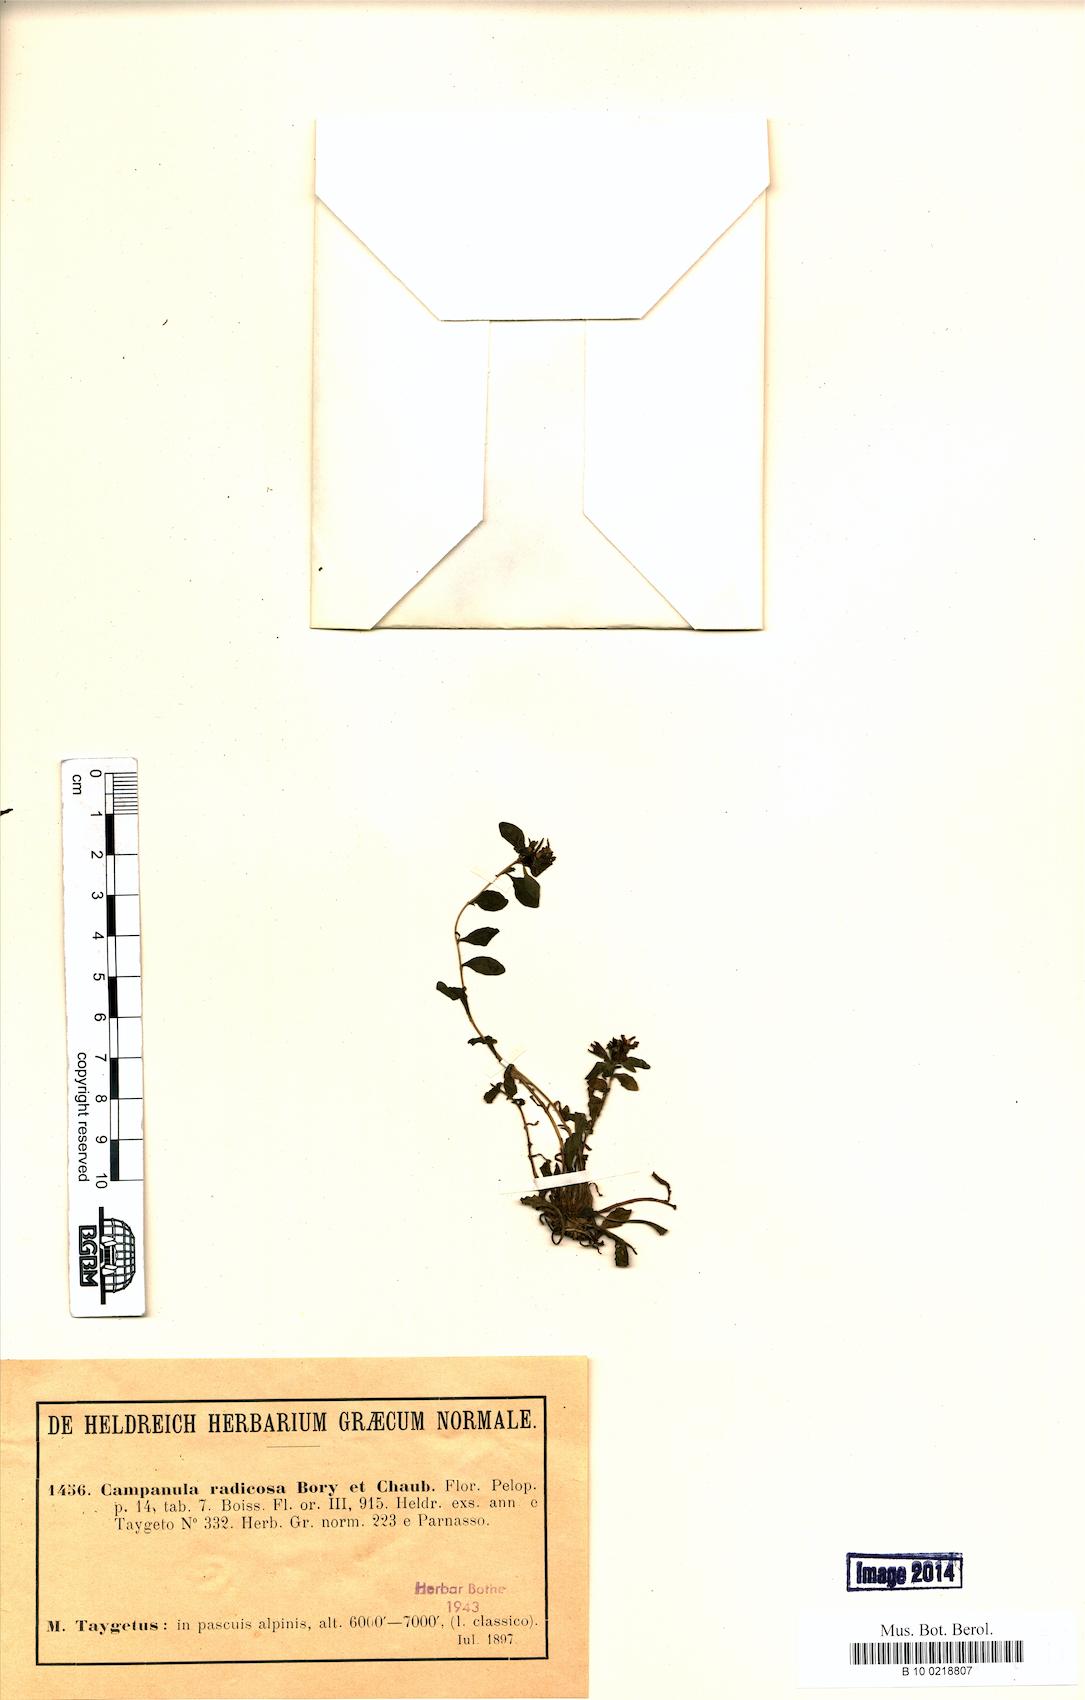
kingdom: Plantae
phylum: Tracheophyta
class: Magnoliopsida
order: Asterales
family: Campanulaceae
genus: Campanula
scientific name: Campanula radicosa
